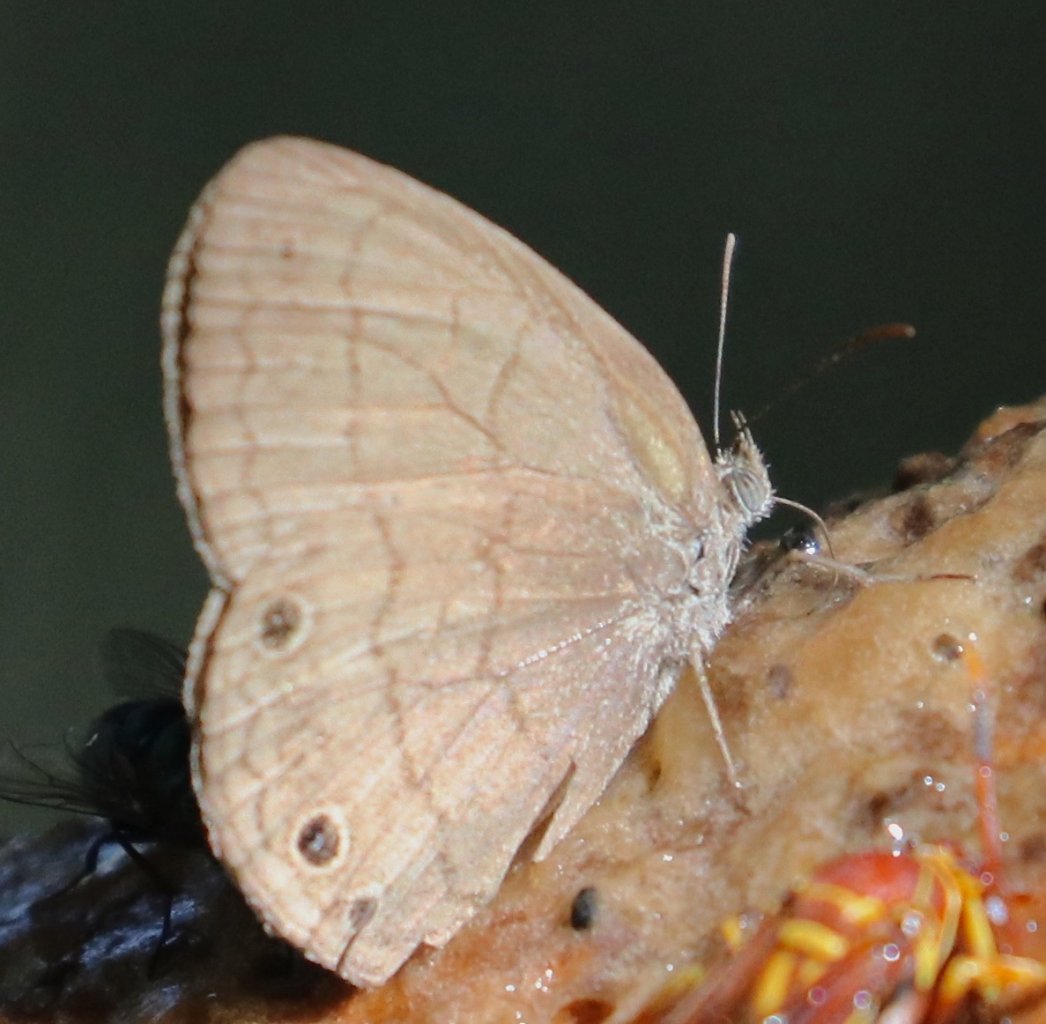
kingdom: Animalia
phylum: Arthropoda
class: Insecta
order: Lepidoptera
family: Nymphalidae
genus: Hermeuptychia
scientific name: Hermeuptychia hermybius
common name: South Texas Satyr
